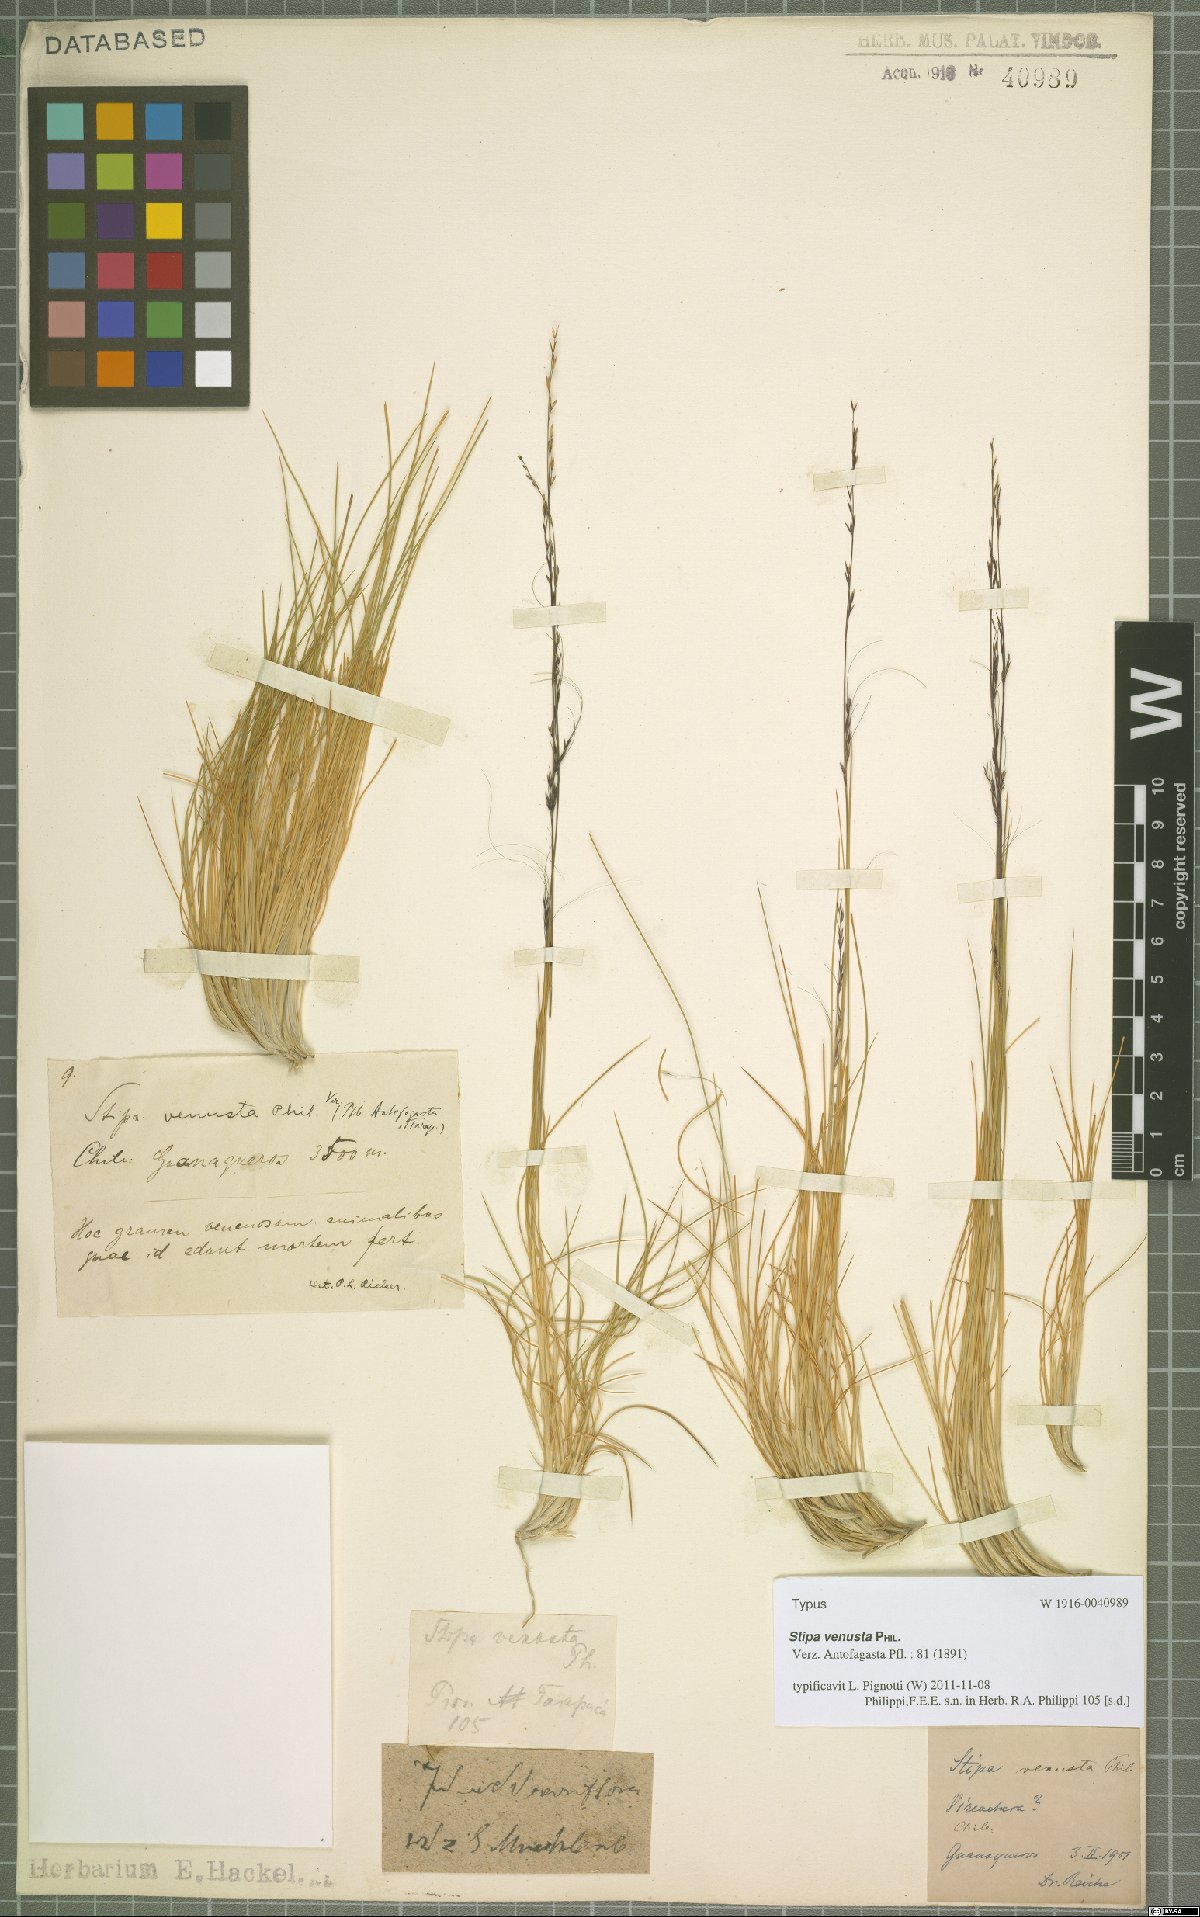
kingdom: Plantae
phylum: Tracheophyta
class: Liliopsida
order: Poales
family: Poaceae
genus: Stipa
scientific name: Stipa venusta
